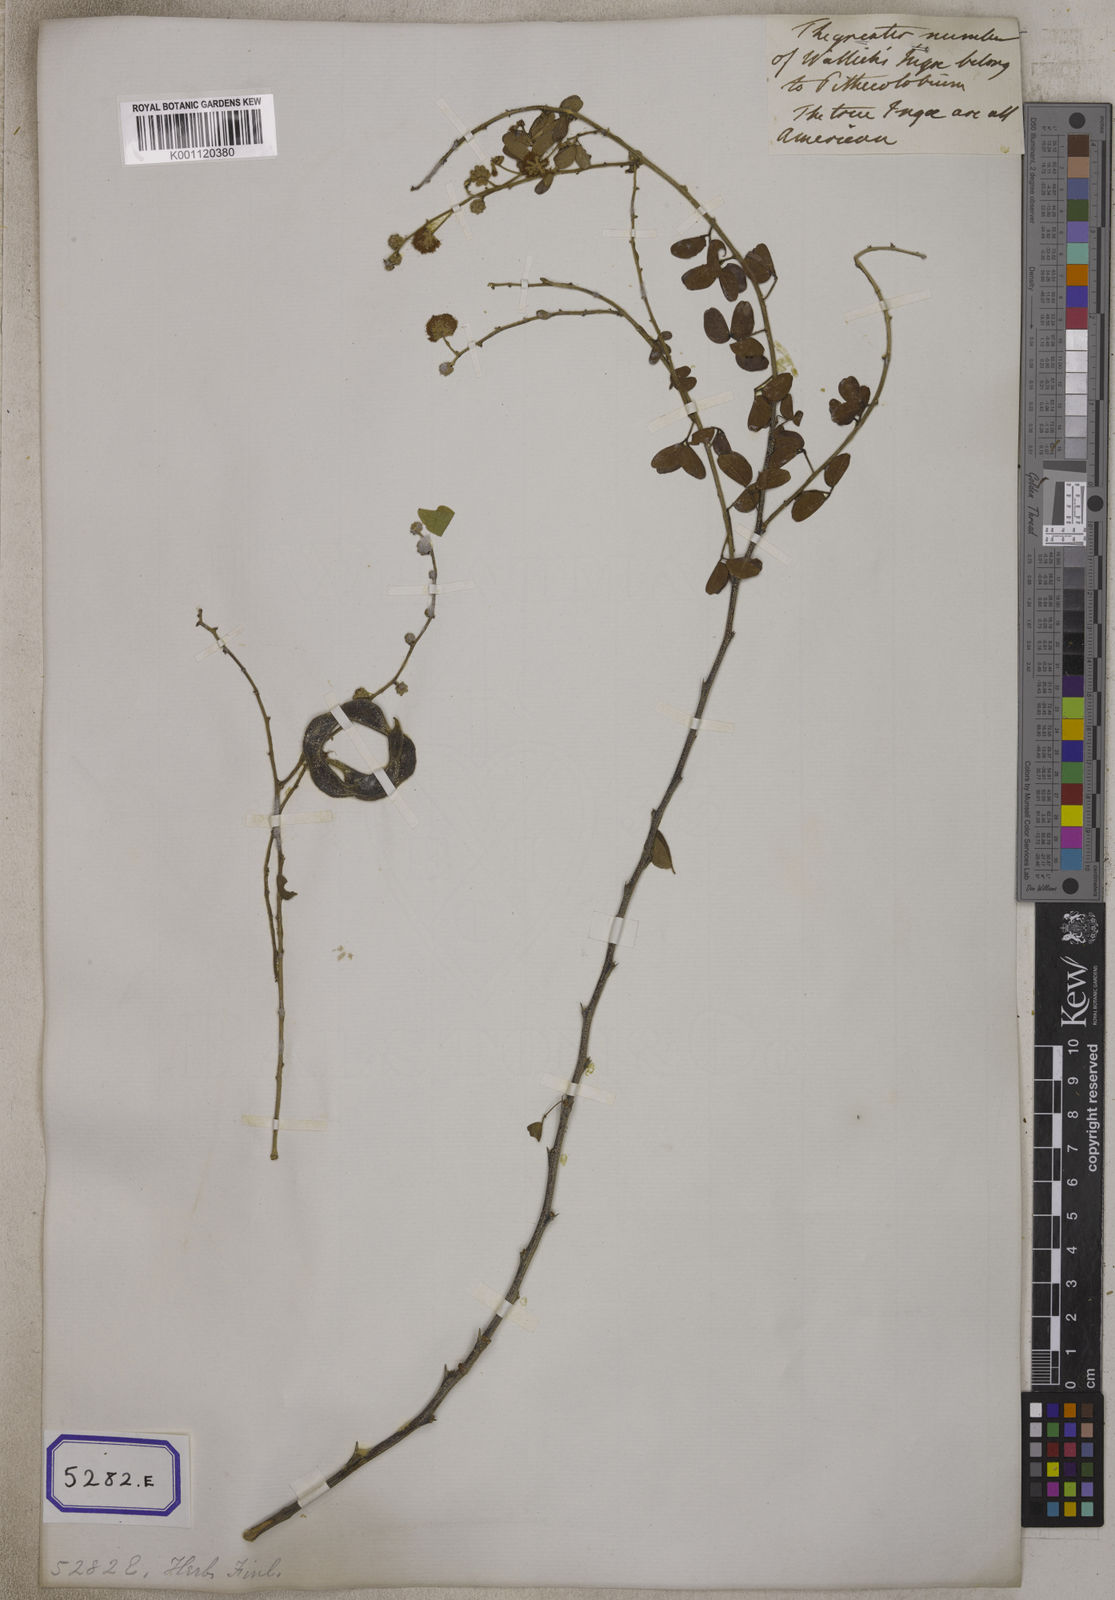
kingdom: Plantae
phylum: Tracheophyta
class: Magnoliopsida
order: Fabales
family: Fabaceae
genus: Pithecellobium
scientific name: Pithecellobium dulce
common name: Monkeypod
